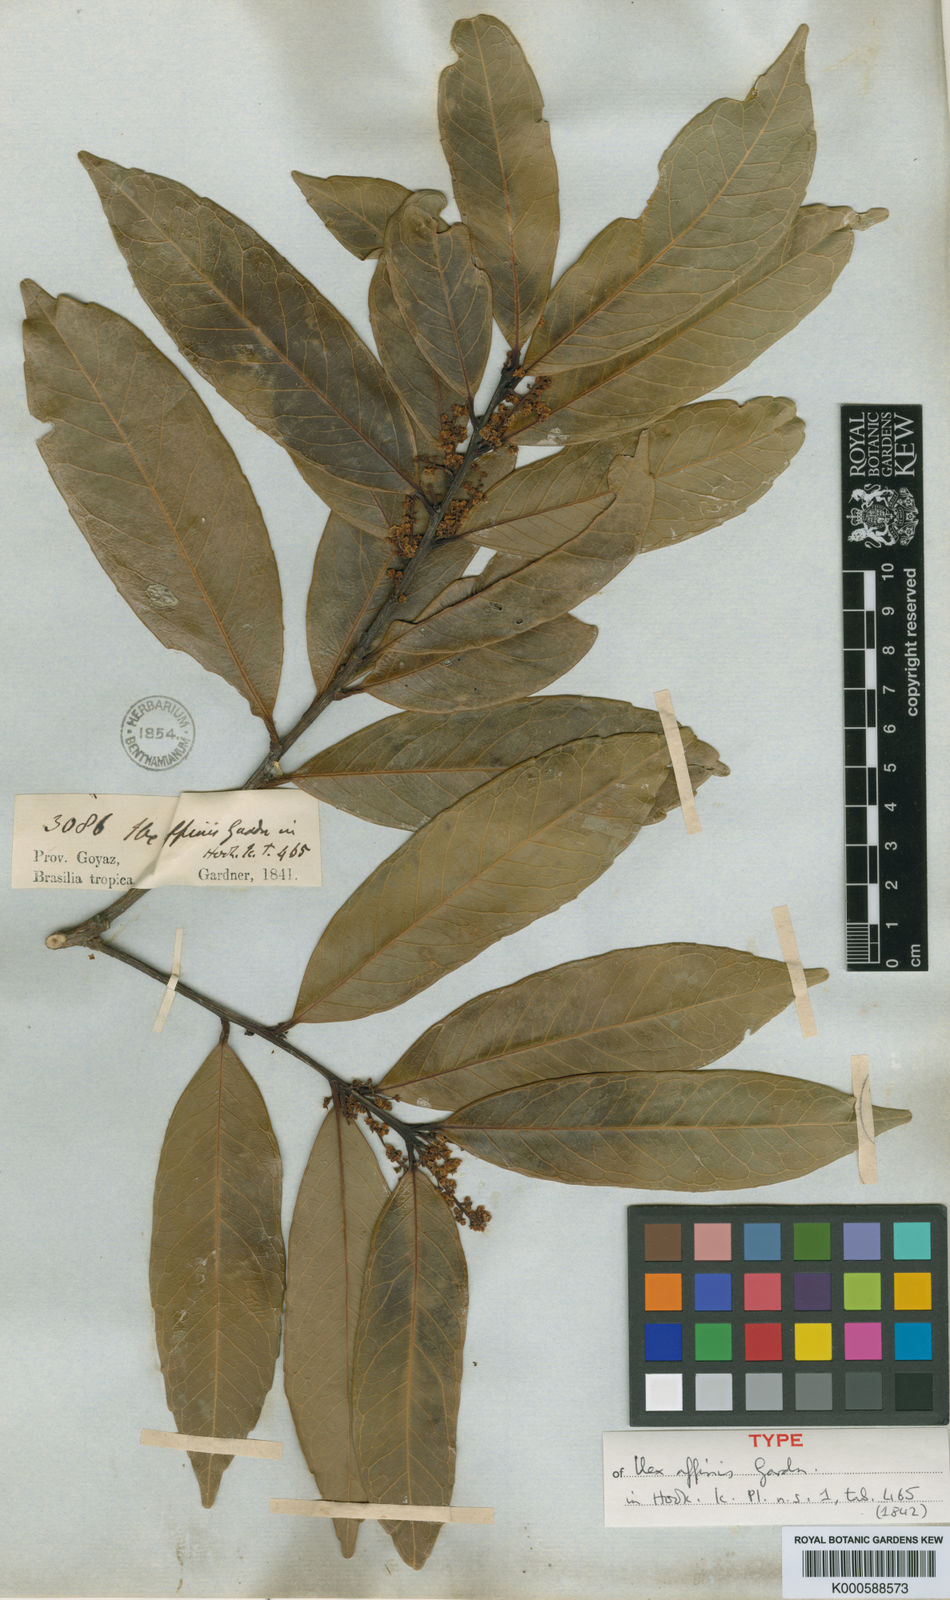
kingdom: Plantae
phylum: Tracheophyta
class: Magnoliopsida
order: Aquifoliales
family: Aquifoliaceae
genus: Ilex
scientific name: Ilex affinis
